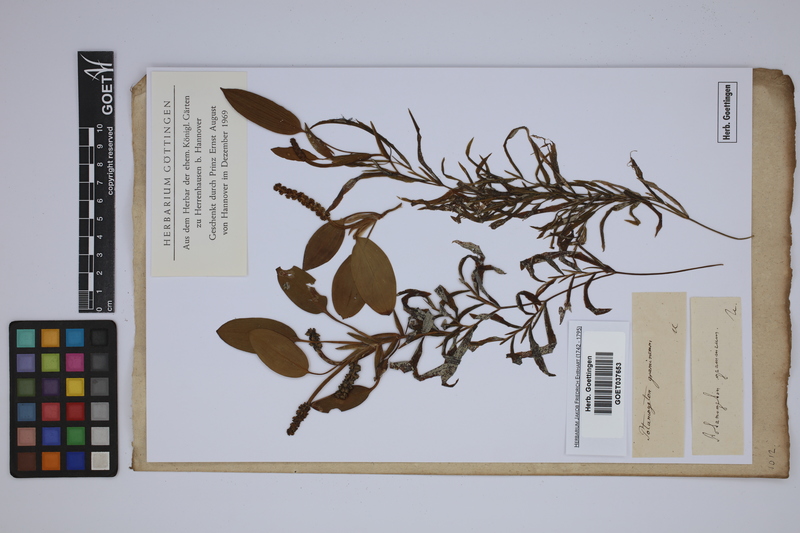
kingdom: Plantae
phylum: Tracheophyta
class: Liliopsida
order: Alismatales
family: Potamogetonaceae
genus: Potamogeton
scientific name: Potamogeton gramineus
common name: Various-leaved pondweed
